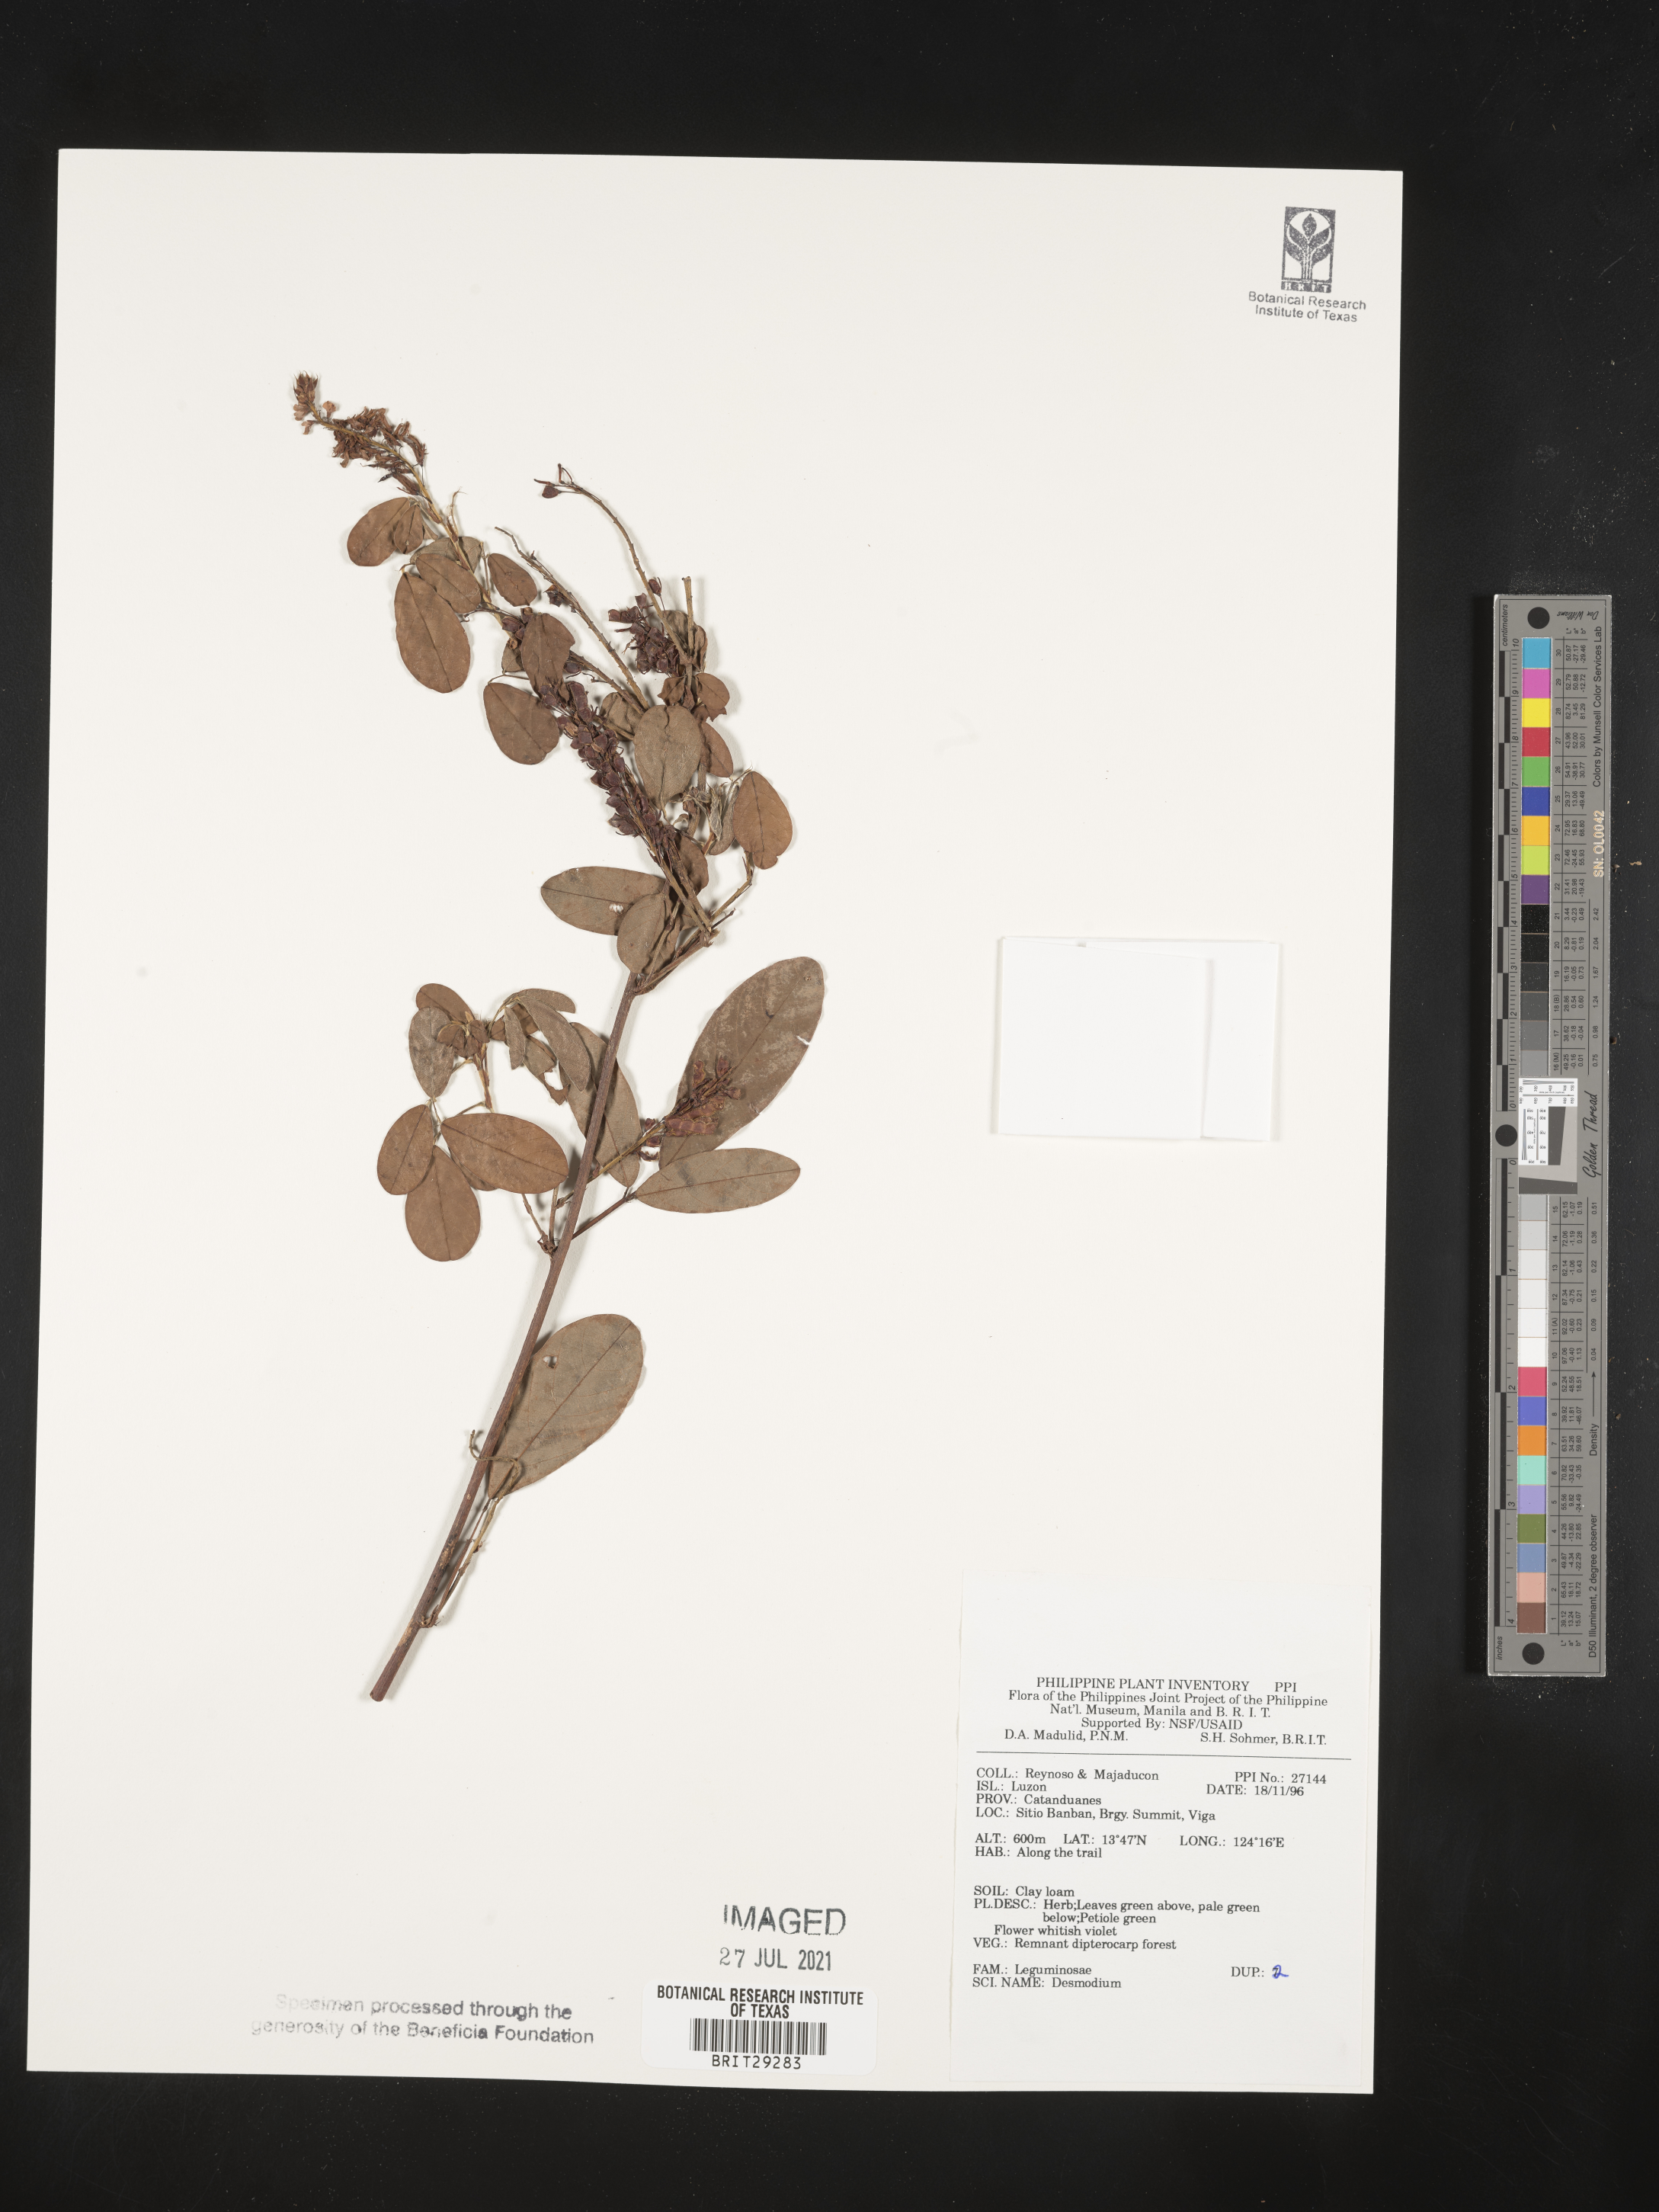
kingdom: Plantae
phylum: Tracheophyta
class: Magnoliopsida
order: Fabales
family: Fabaceae
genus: Desmodium
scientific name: Desmodium
